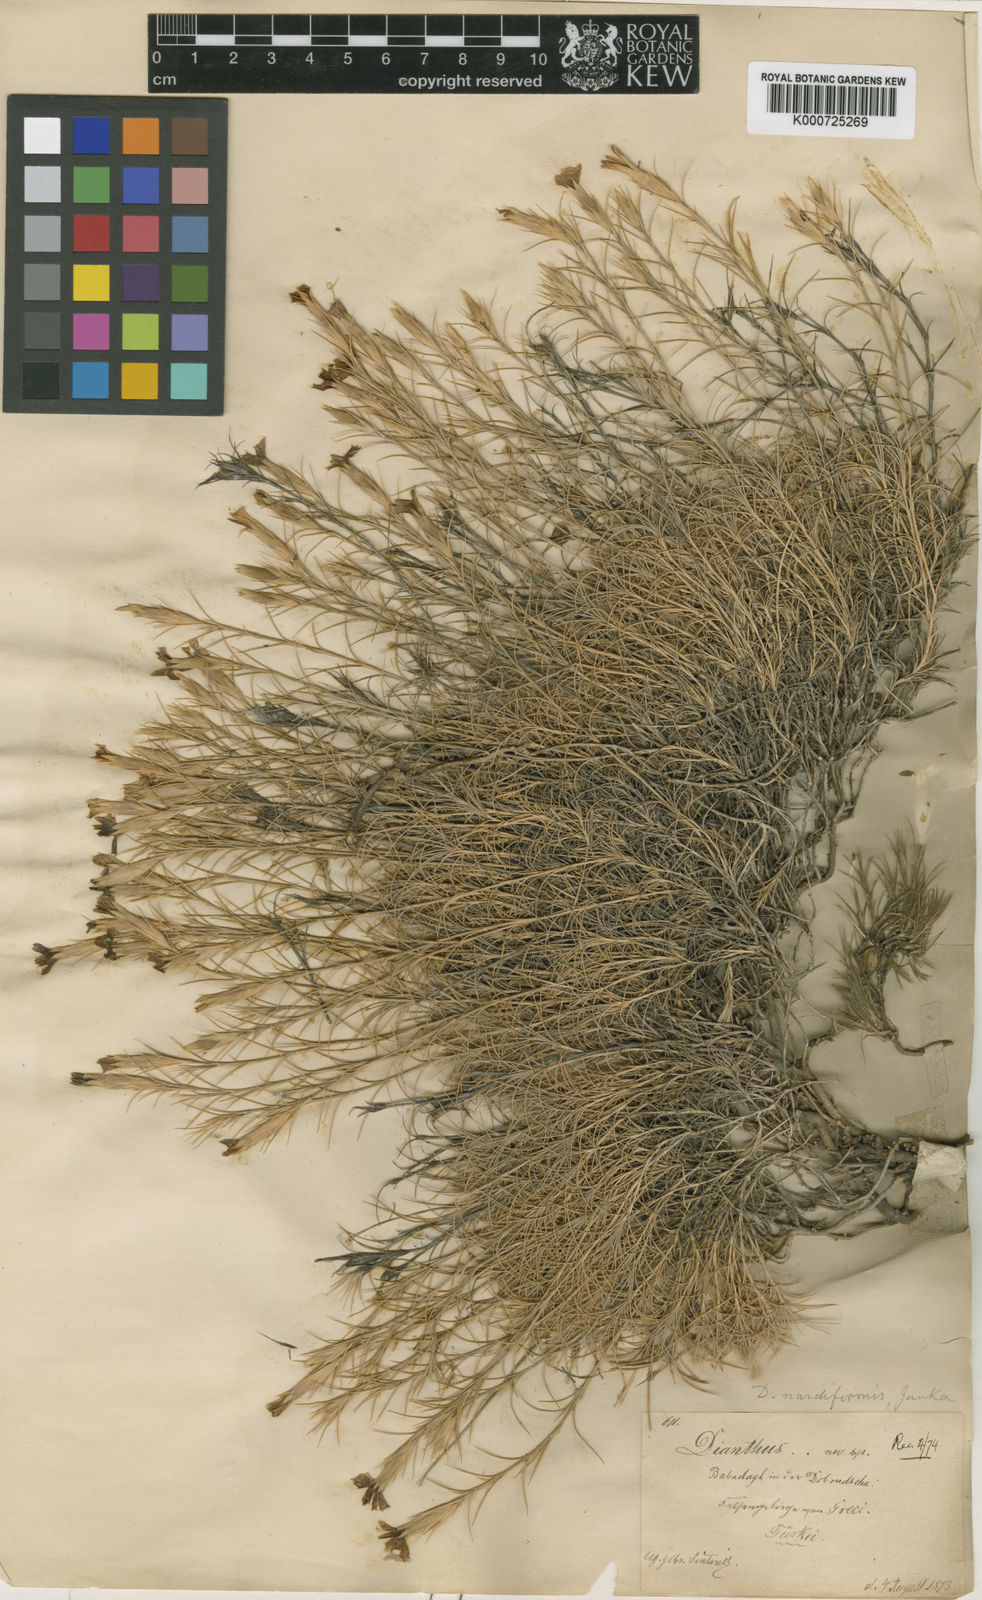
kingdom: Plantae
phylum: Tracheophyta
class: Magnoliopsida
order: Caryophyllales
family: Caryophyllaceae
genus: Dianthus
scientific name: Dianthus nardiformis
